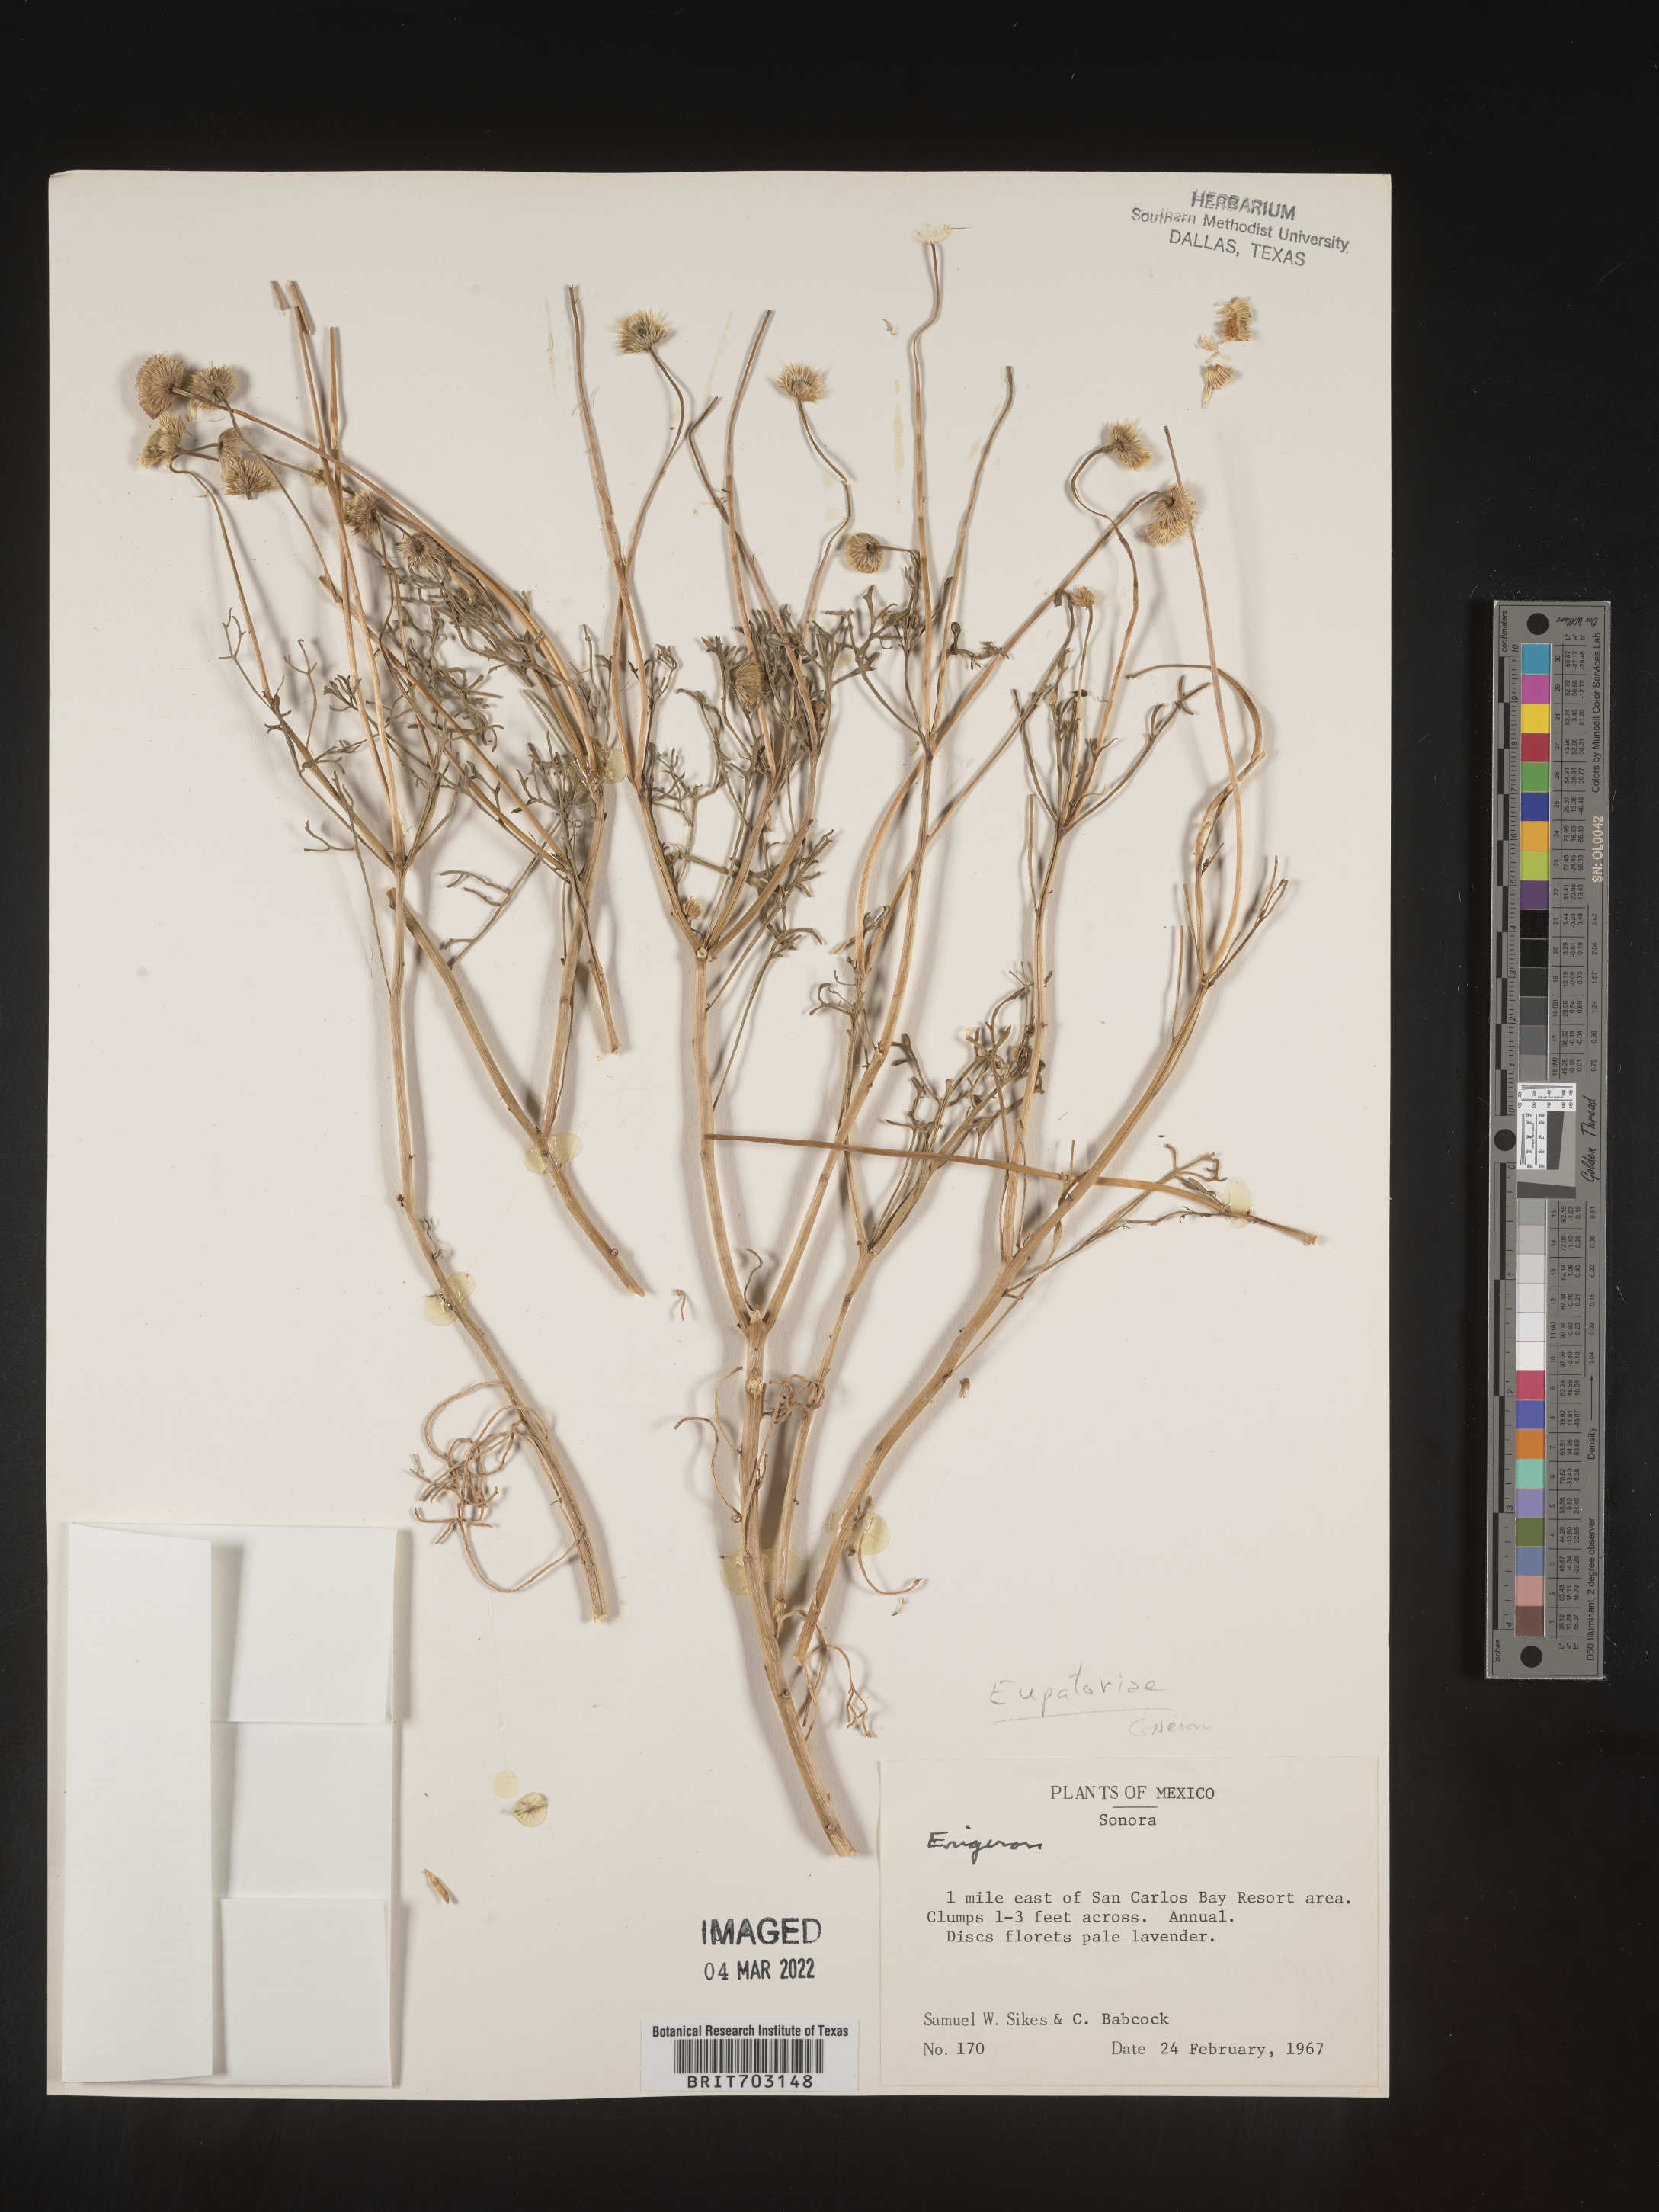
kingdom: Plantae
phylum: Tracheophyta
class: Magnoliopsida
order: Asterales
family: Asteraceae
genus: Eupatorium
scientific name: Eupatorium
